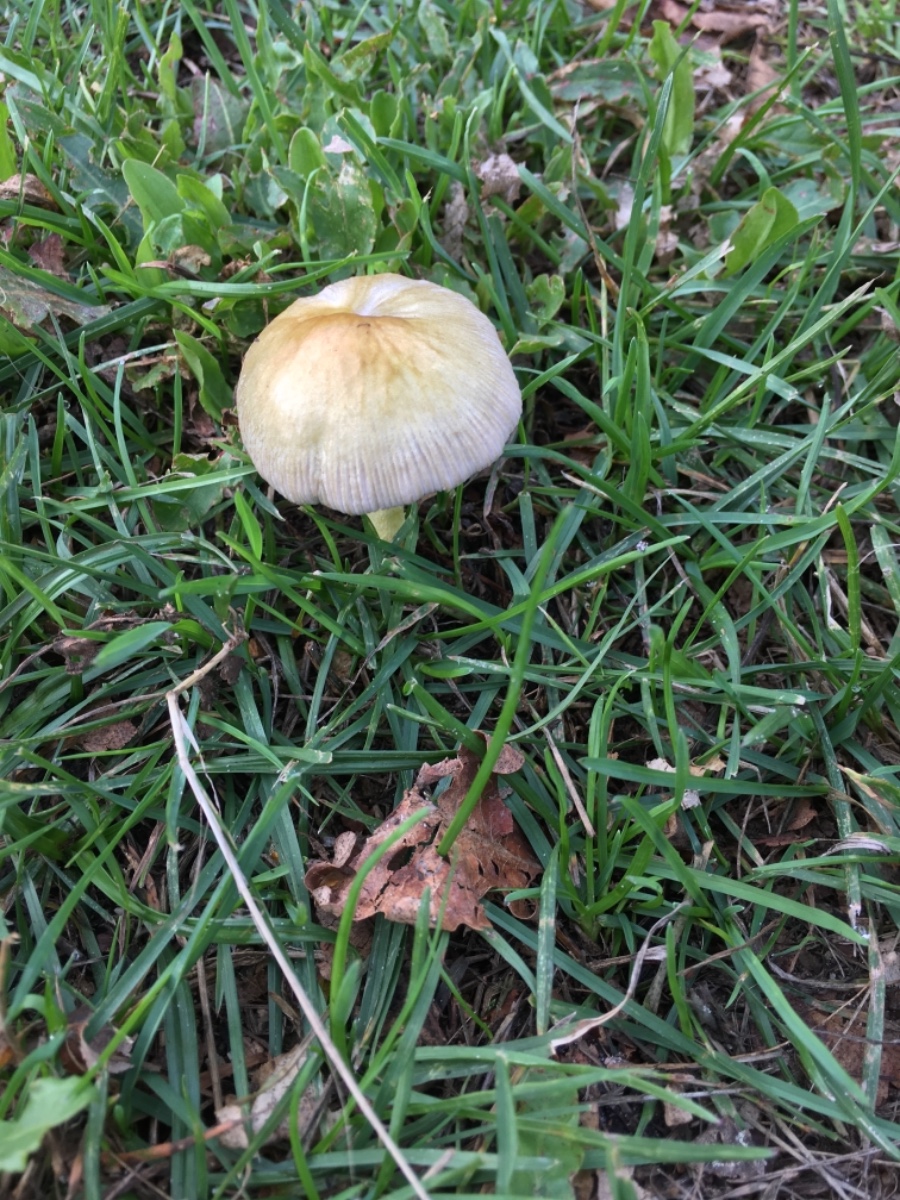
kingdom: Fungi
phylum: Basidiomycota
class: Agaricomycetes
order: Agaricales
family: Bolbitiaceae
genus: Bolbitius
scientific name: Bolbitius titubans
